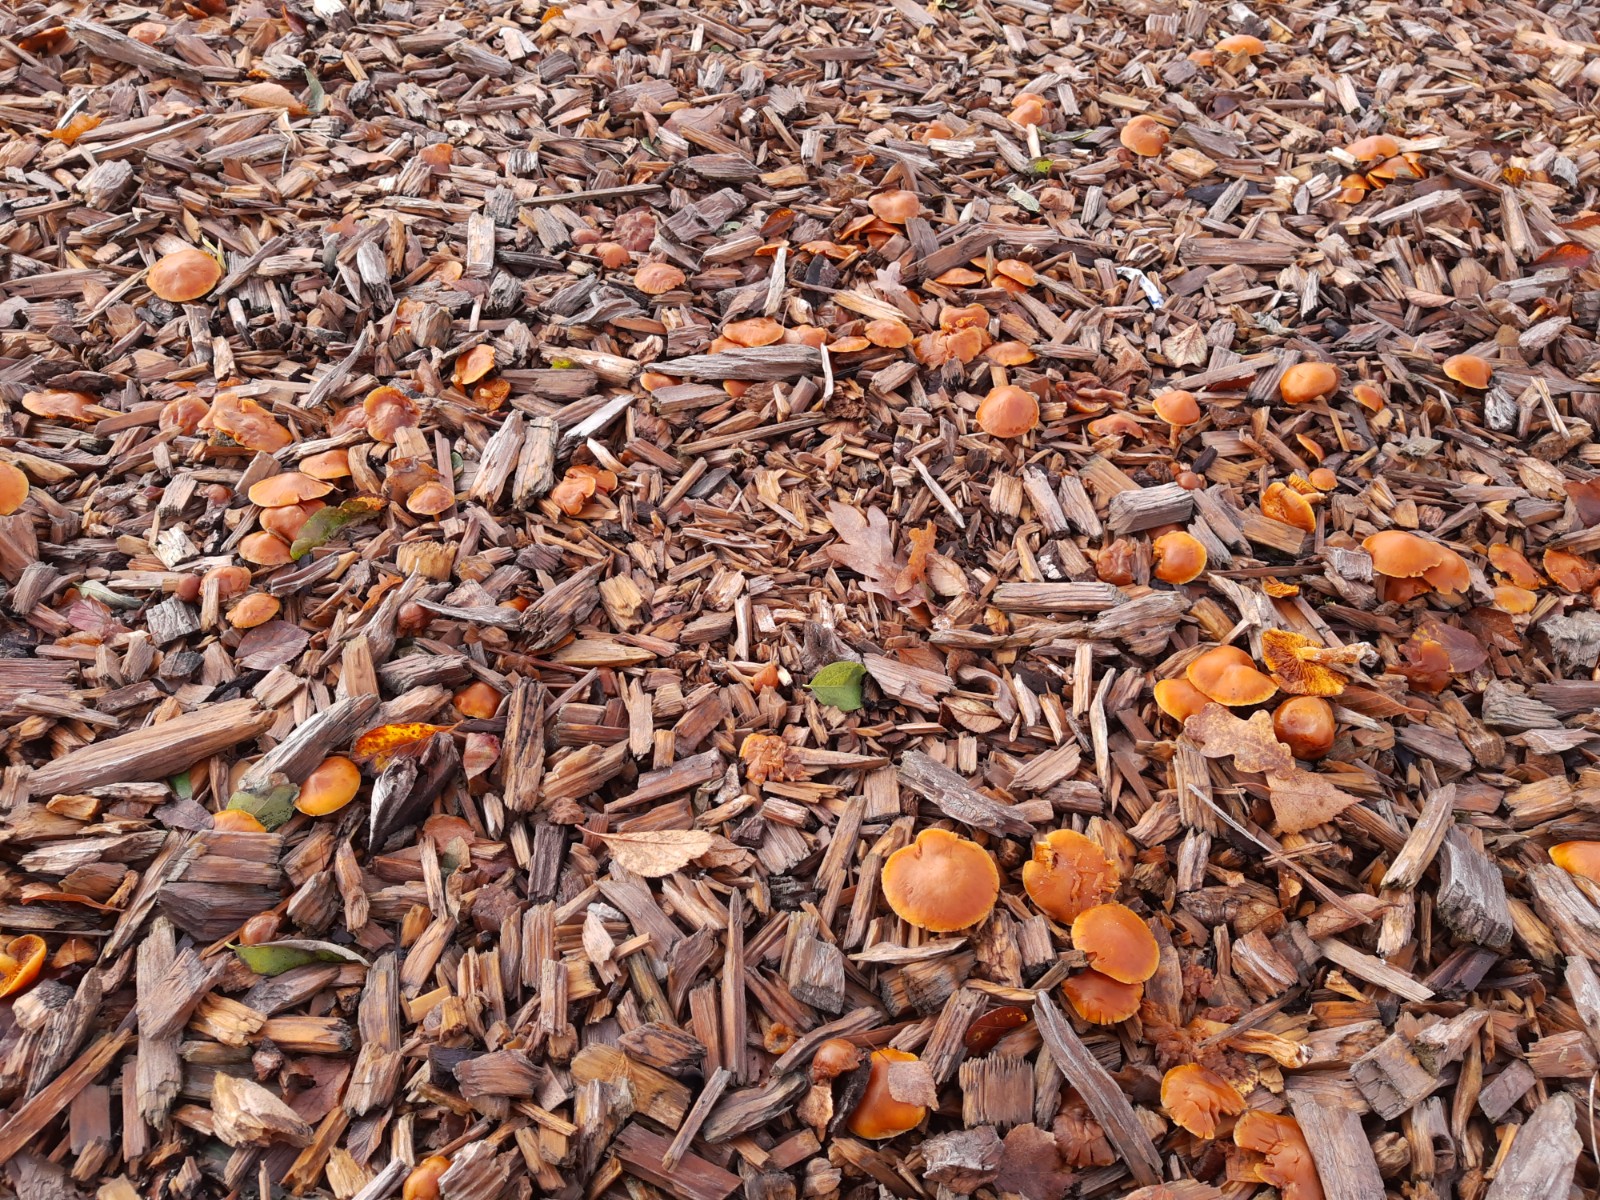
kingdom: Fungi
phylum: Basidiomycota
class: Agaricomycetes
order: Agaricales
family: Hymenogastraceae
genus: Gymnopilus
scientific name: Gymnopilus penetrans
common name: plettet flammehat
